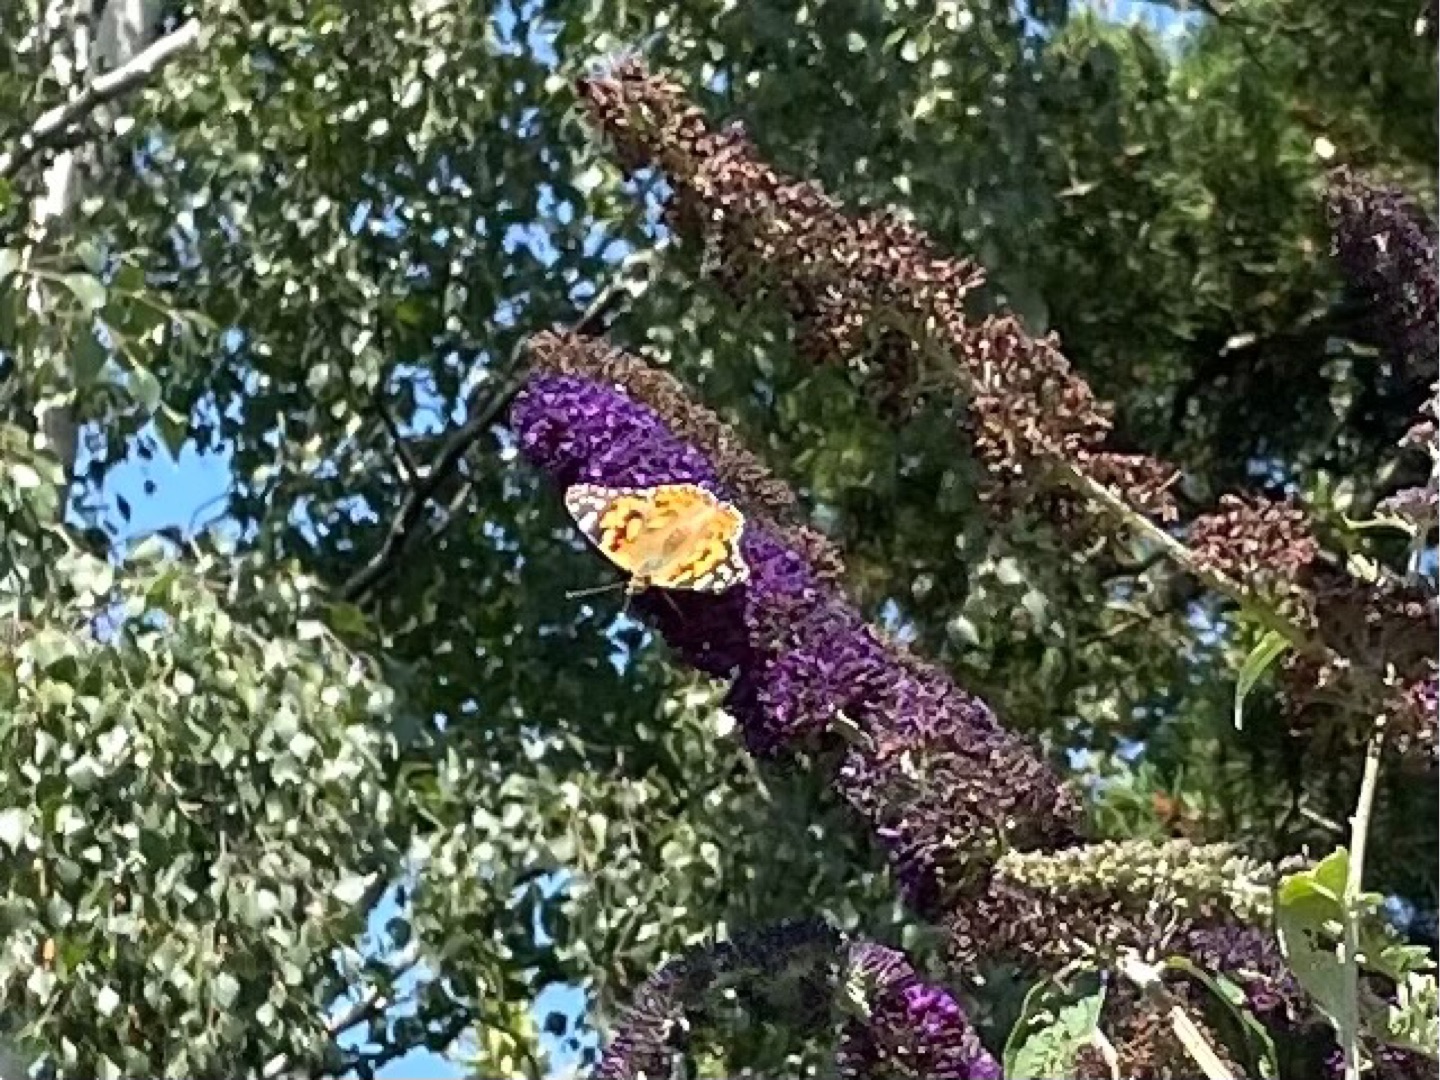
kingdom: Animalia
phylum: Arthropoda
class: Insecta
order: Lepidoptera
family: Nymphalidae
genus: Vanessa
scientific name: Vanessa cardui
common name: Tidselsommerfugl
